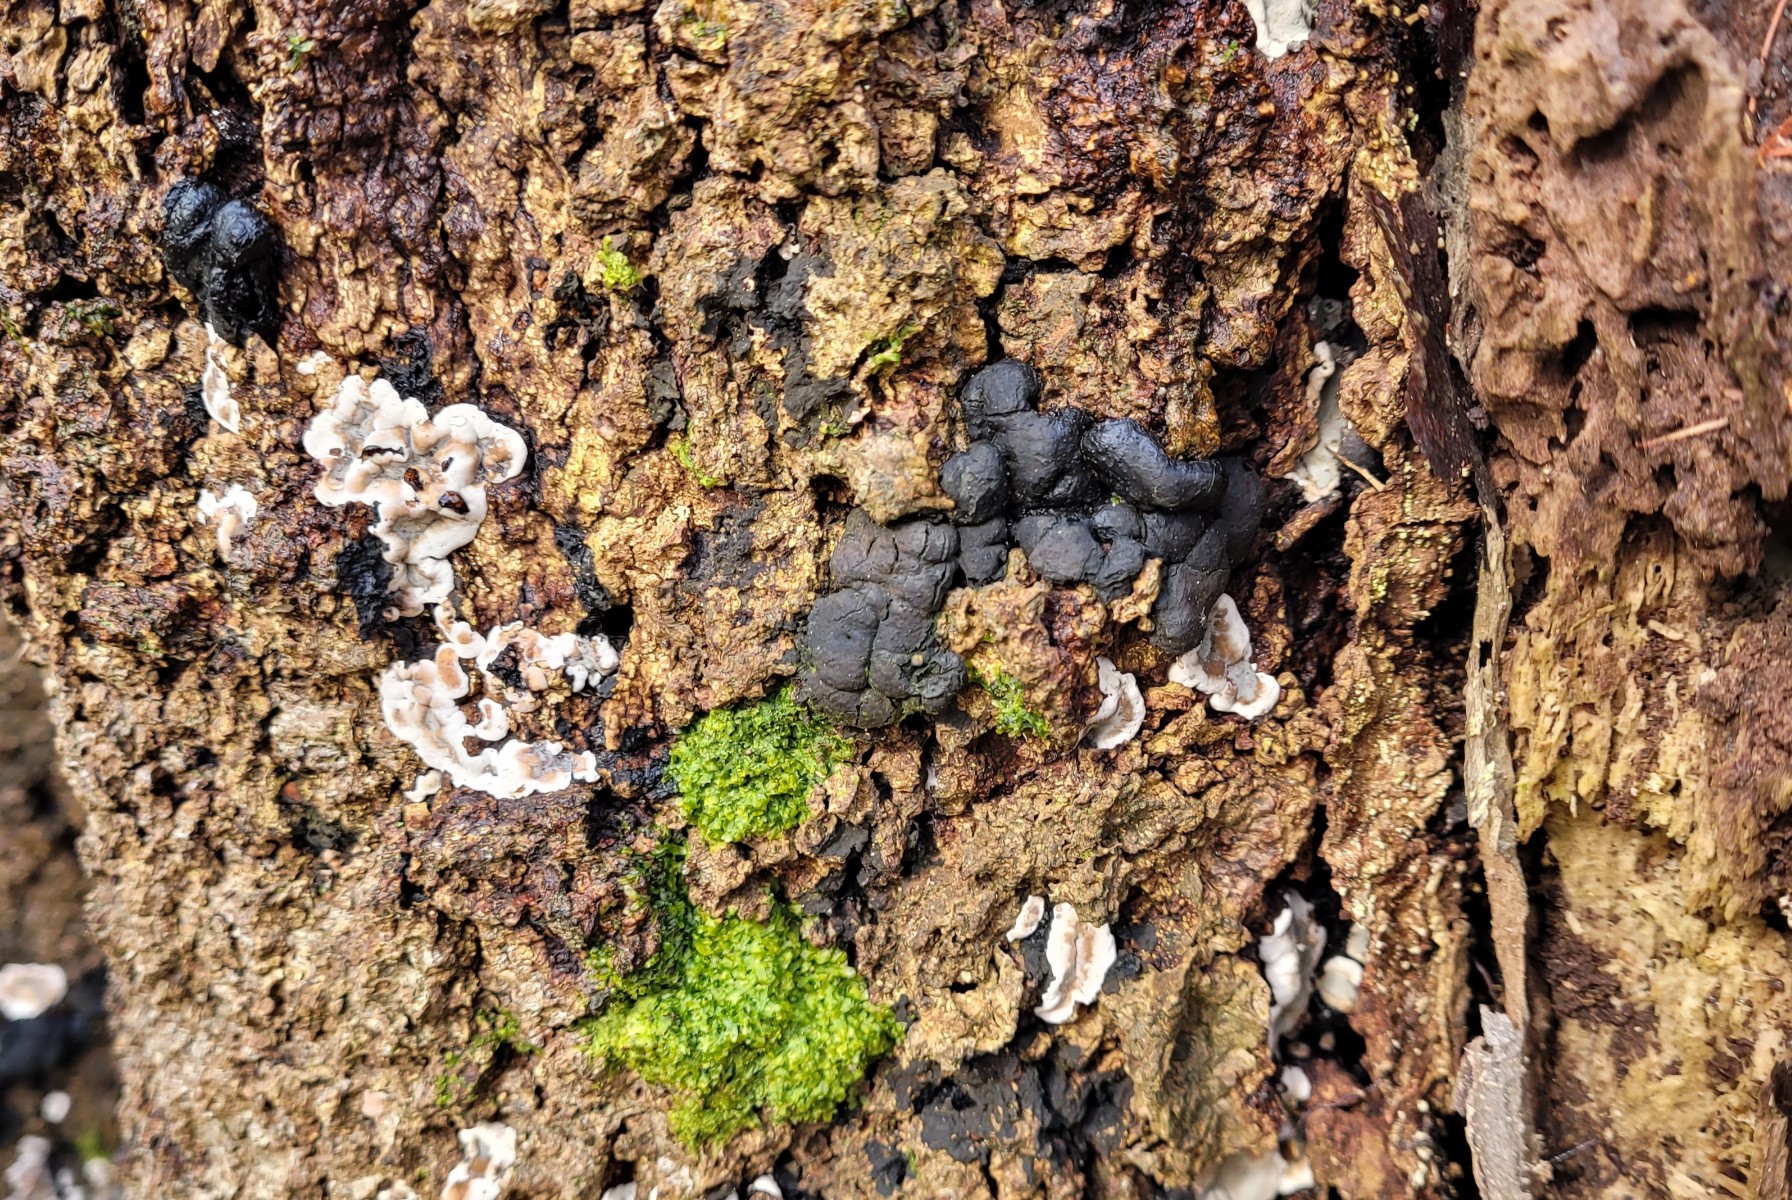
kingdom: Fungi
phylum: Ascomycota
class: Sordariomycetes
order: Xylariales
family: Xylariaceae
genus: Kretzschmaria
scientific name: Kretzschmaria deusta
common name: stor kulsvamp
